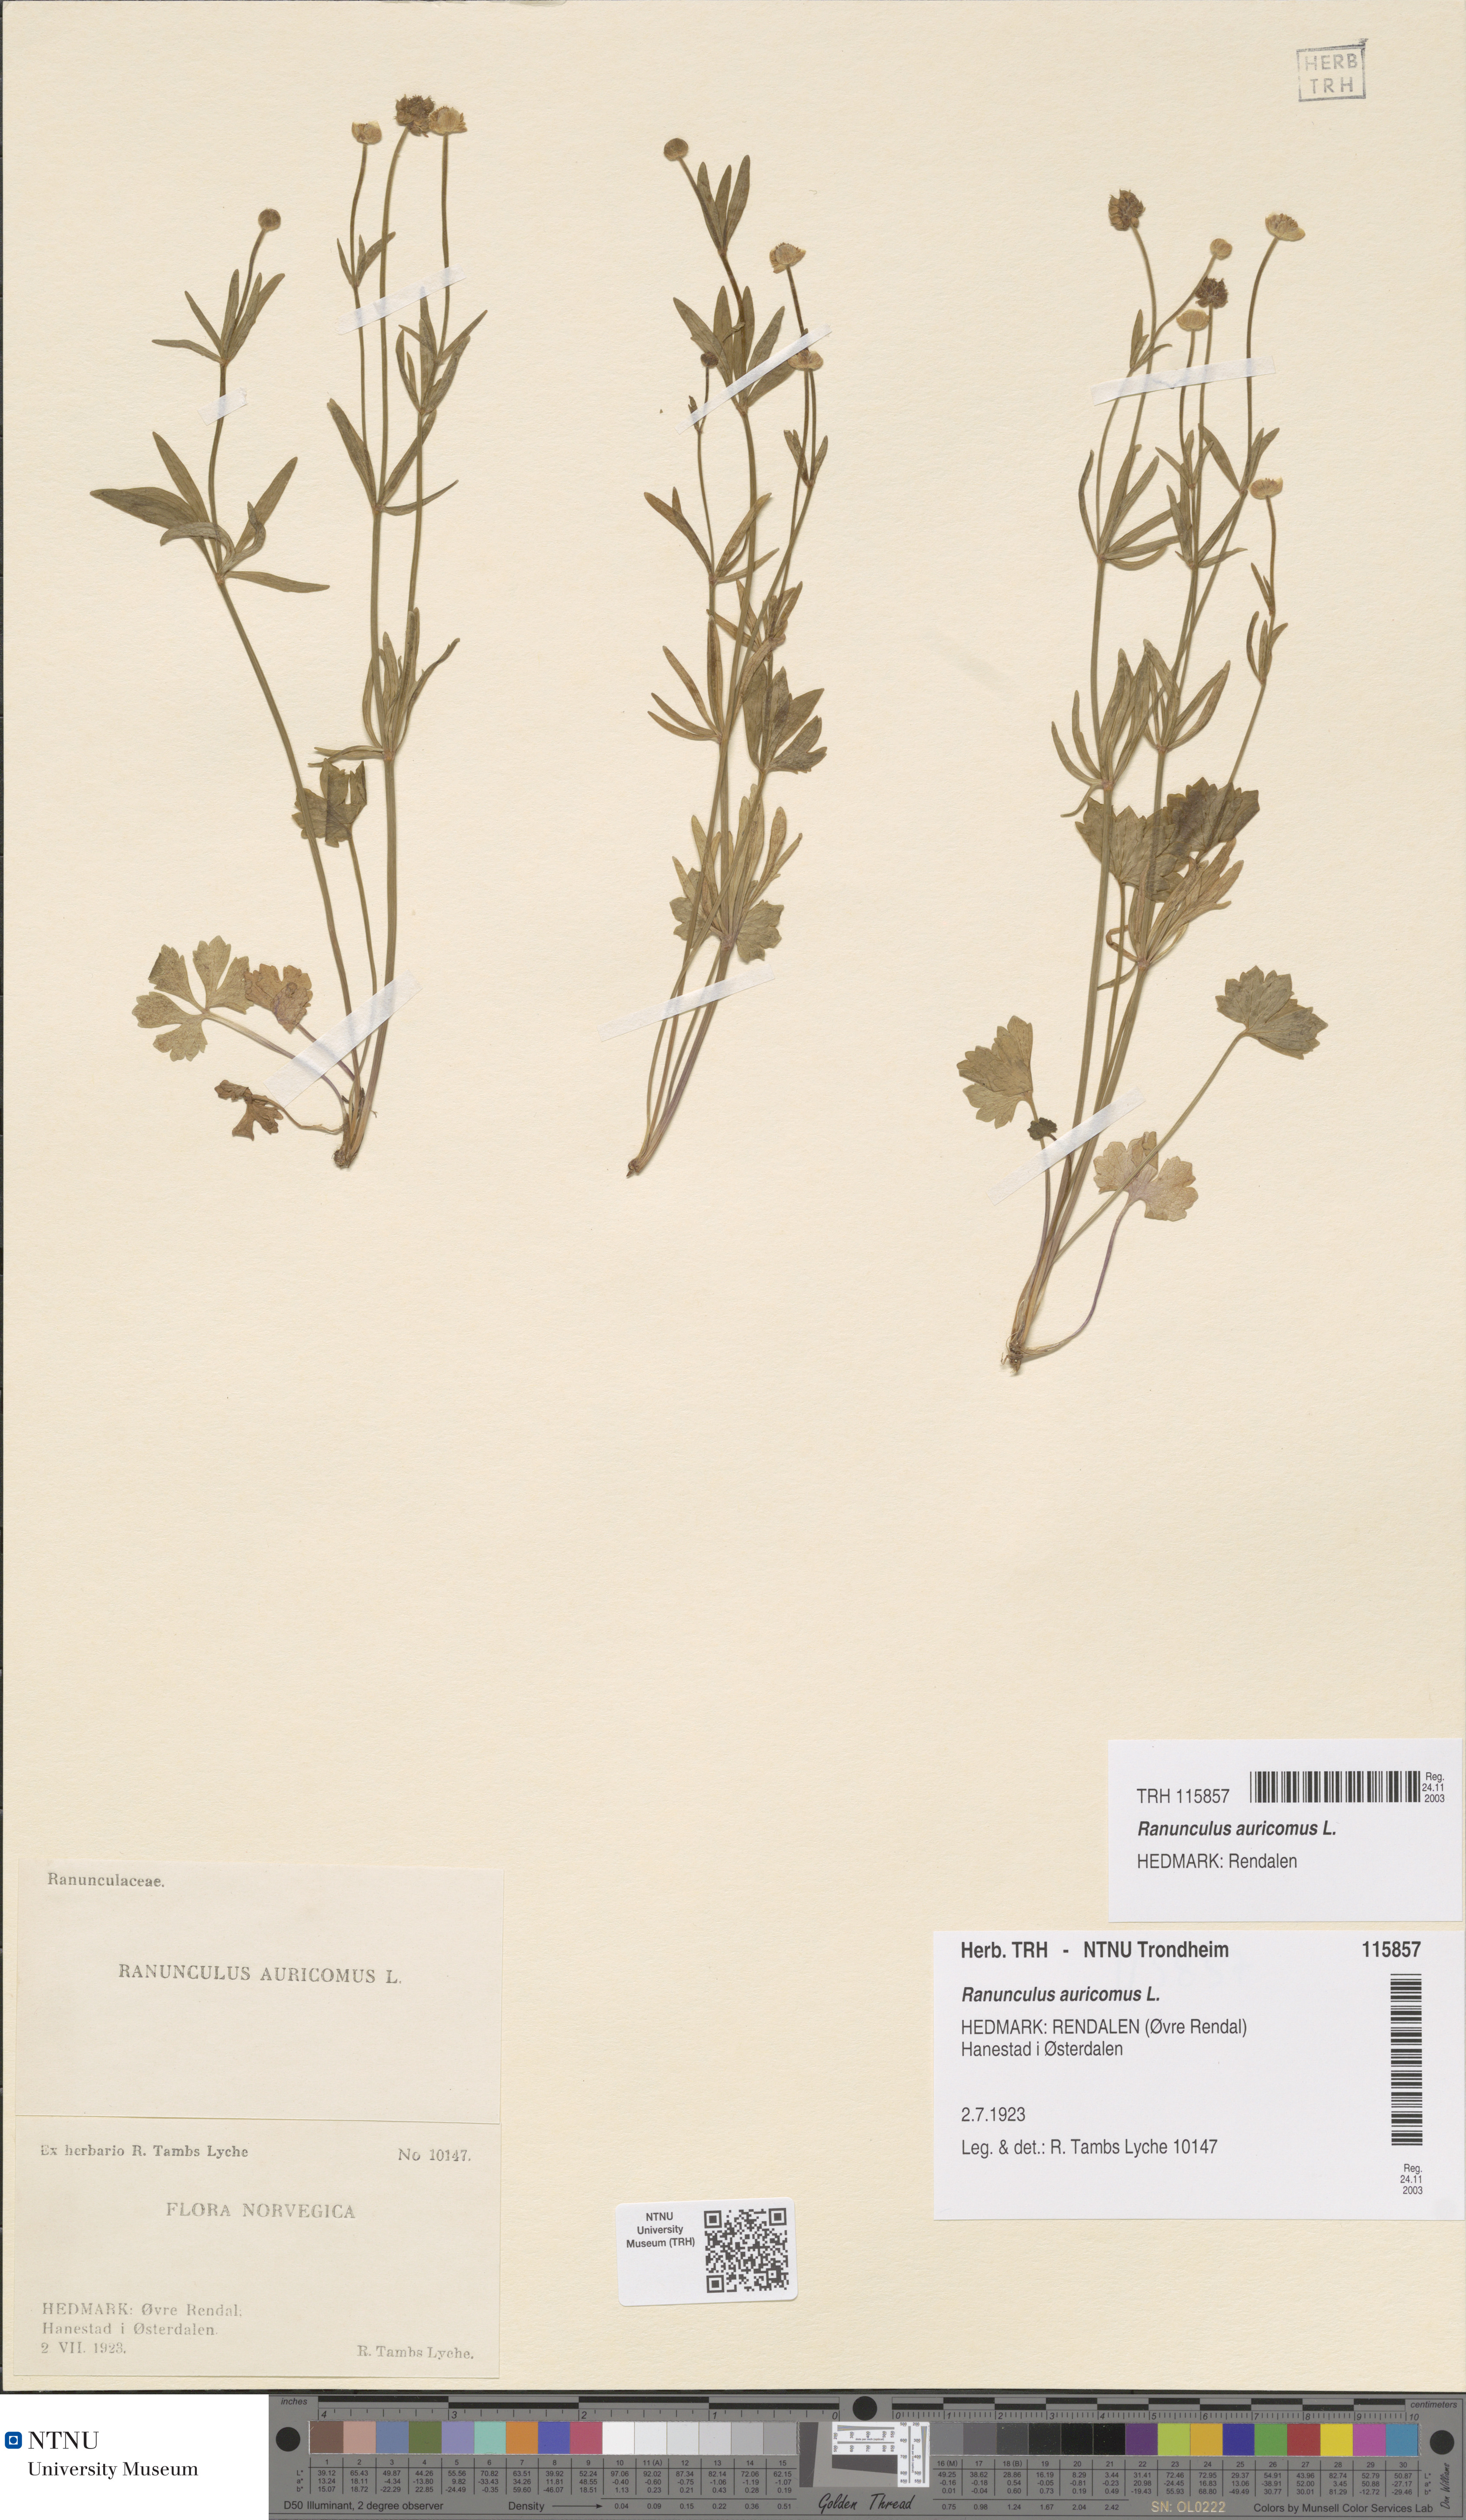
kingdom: Plantae
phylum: Tracheophyta
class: Magnoliopsida
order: Ranunculales
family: Ranunculaceae
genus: Ranunculus
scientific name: Ranunculus auricomus
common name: Goldilocks buttercup
